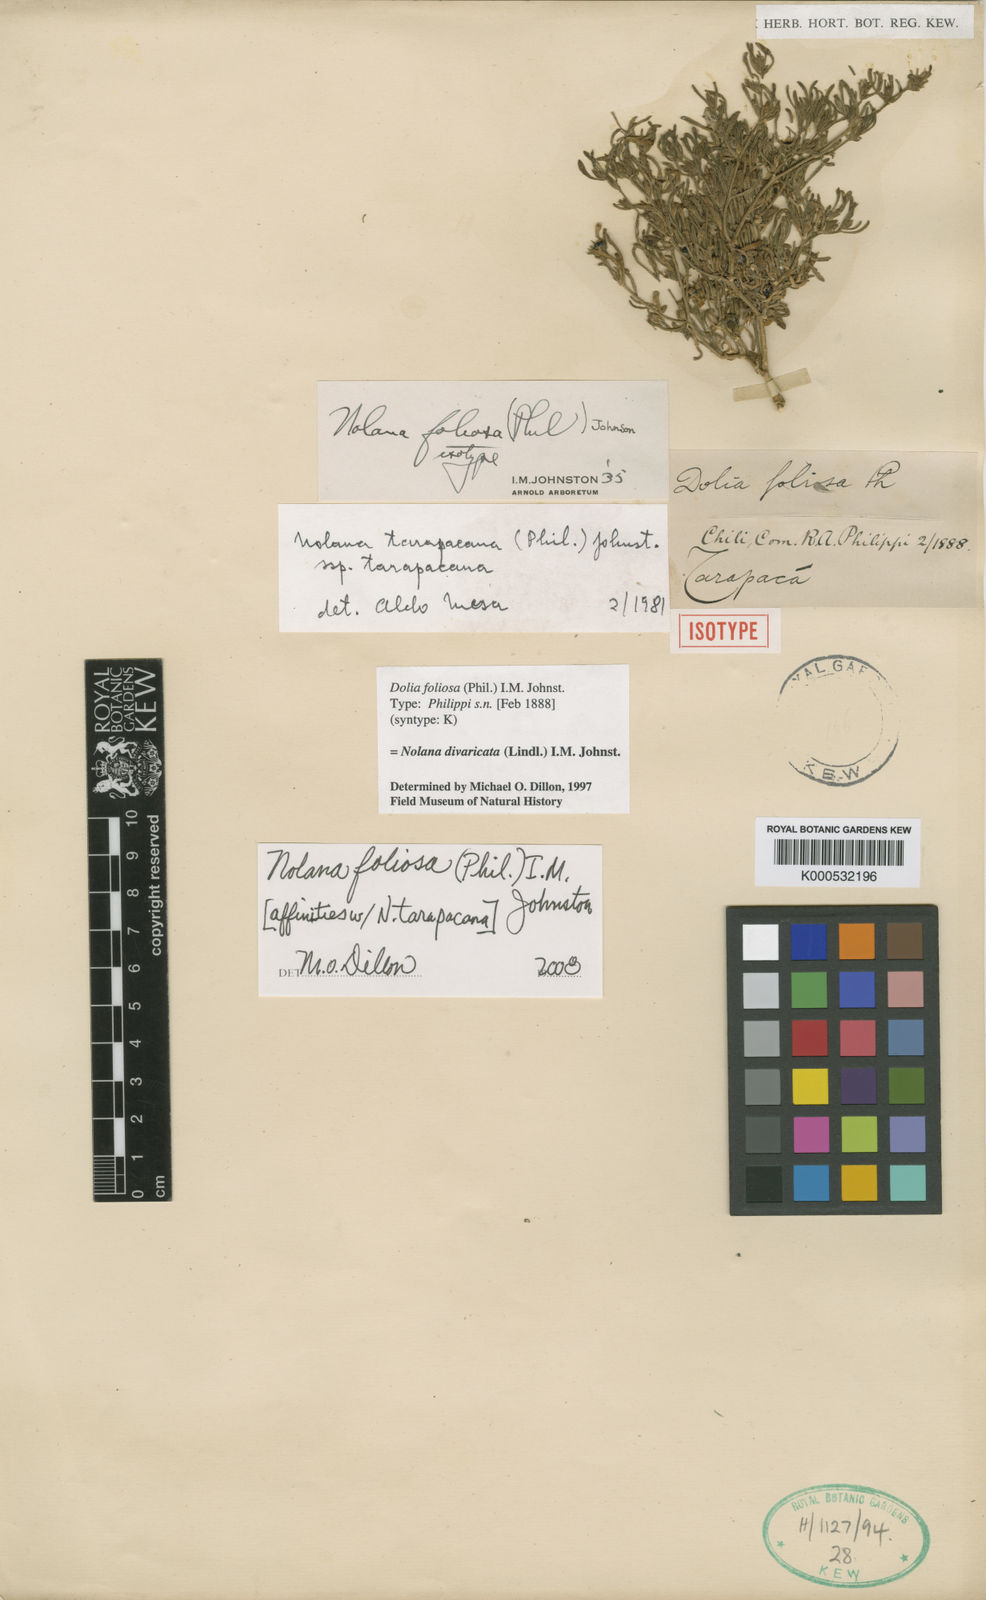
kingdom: Plantae
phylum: Tracheophyta
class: Magnoliopsida
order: Solanales
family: Solanaceae
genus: Nolana
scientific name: Nolana tarapacana
